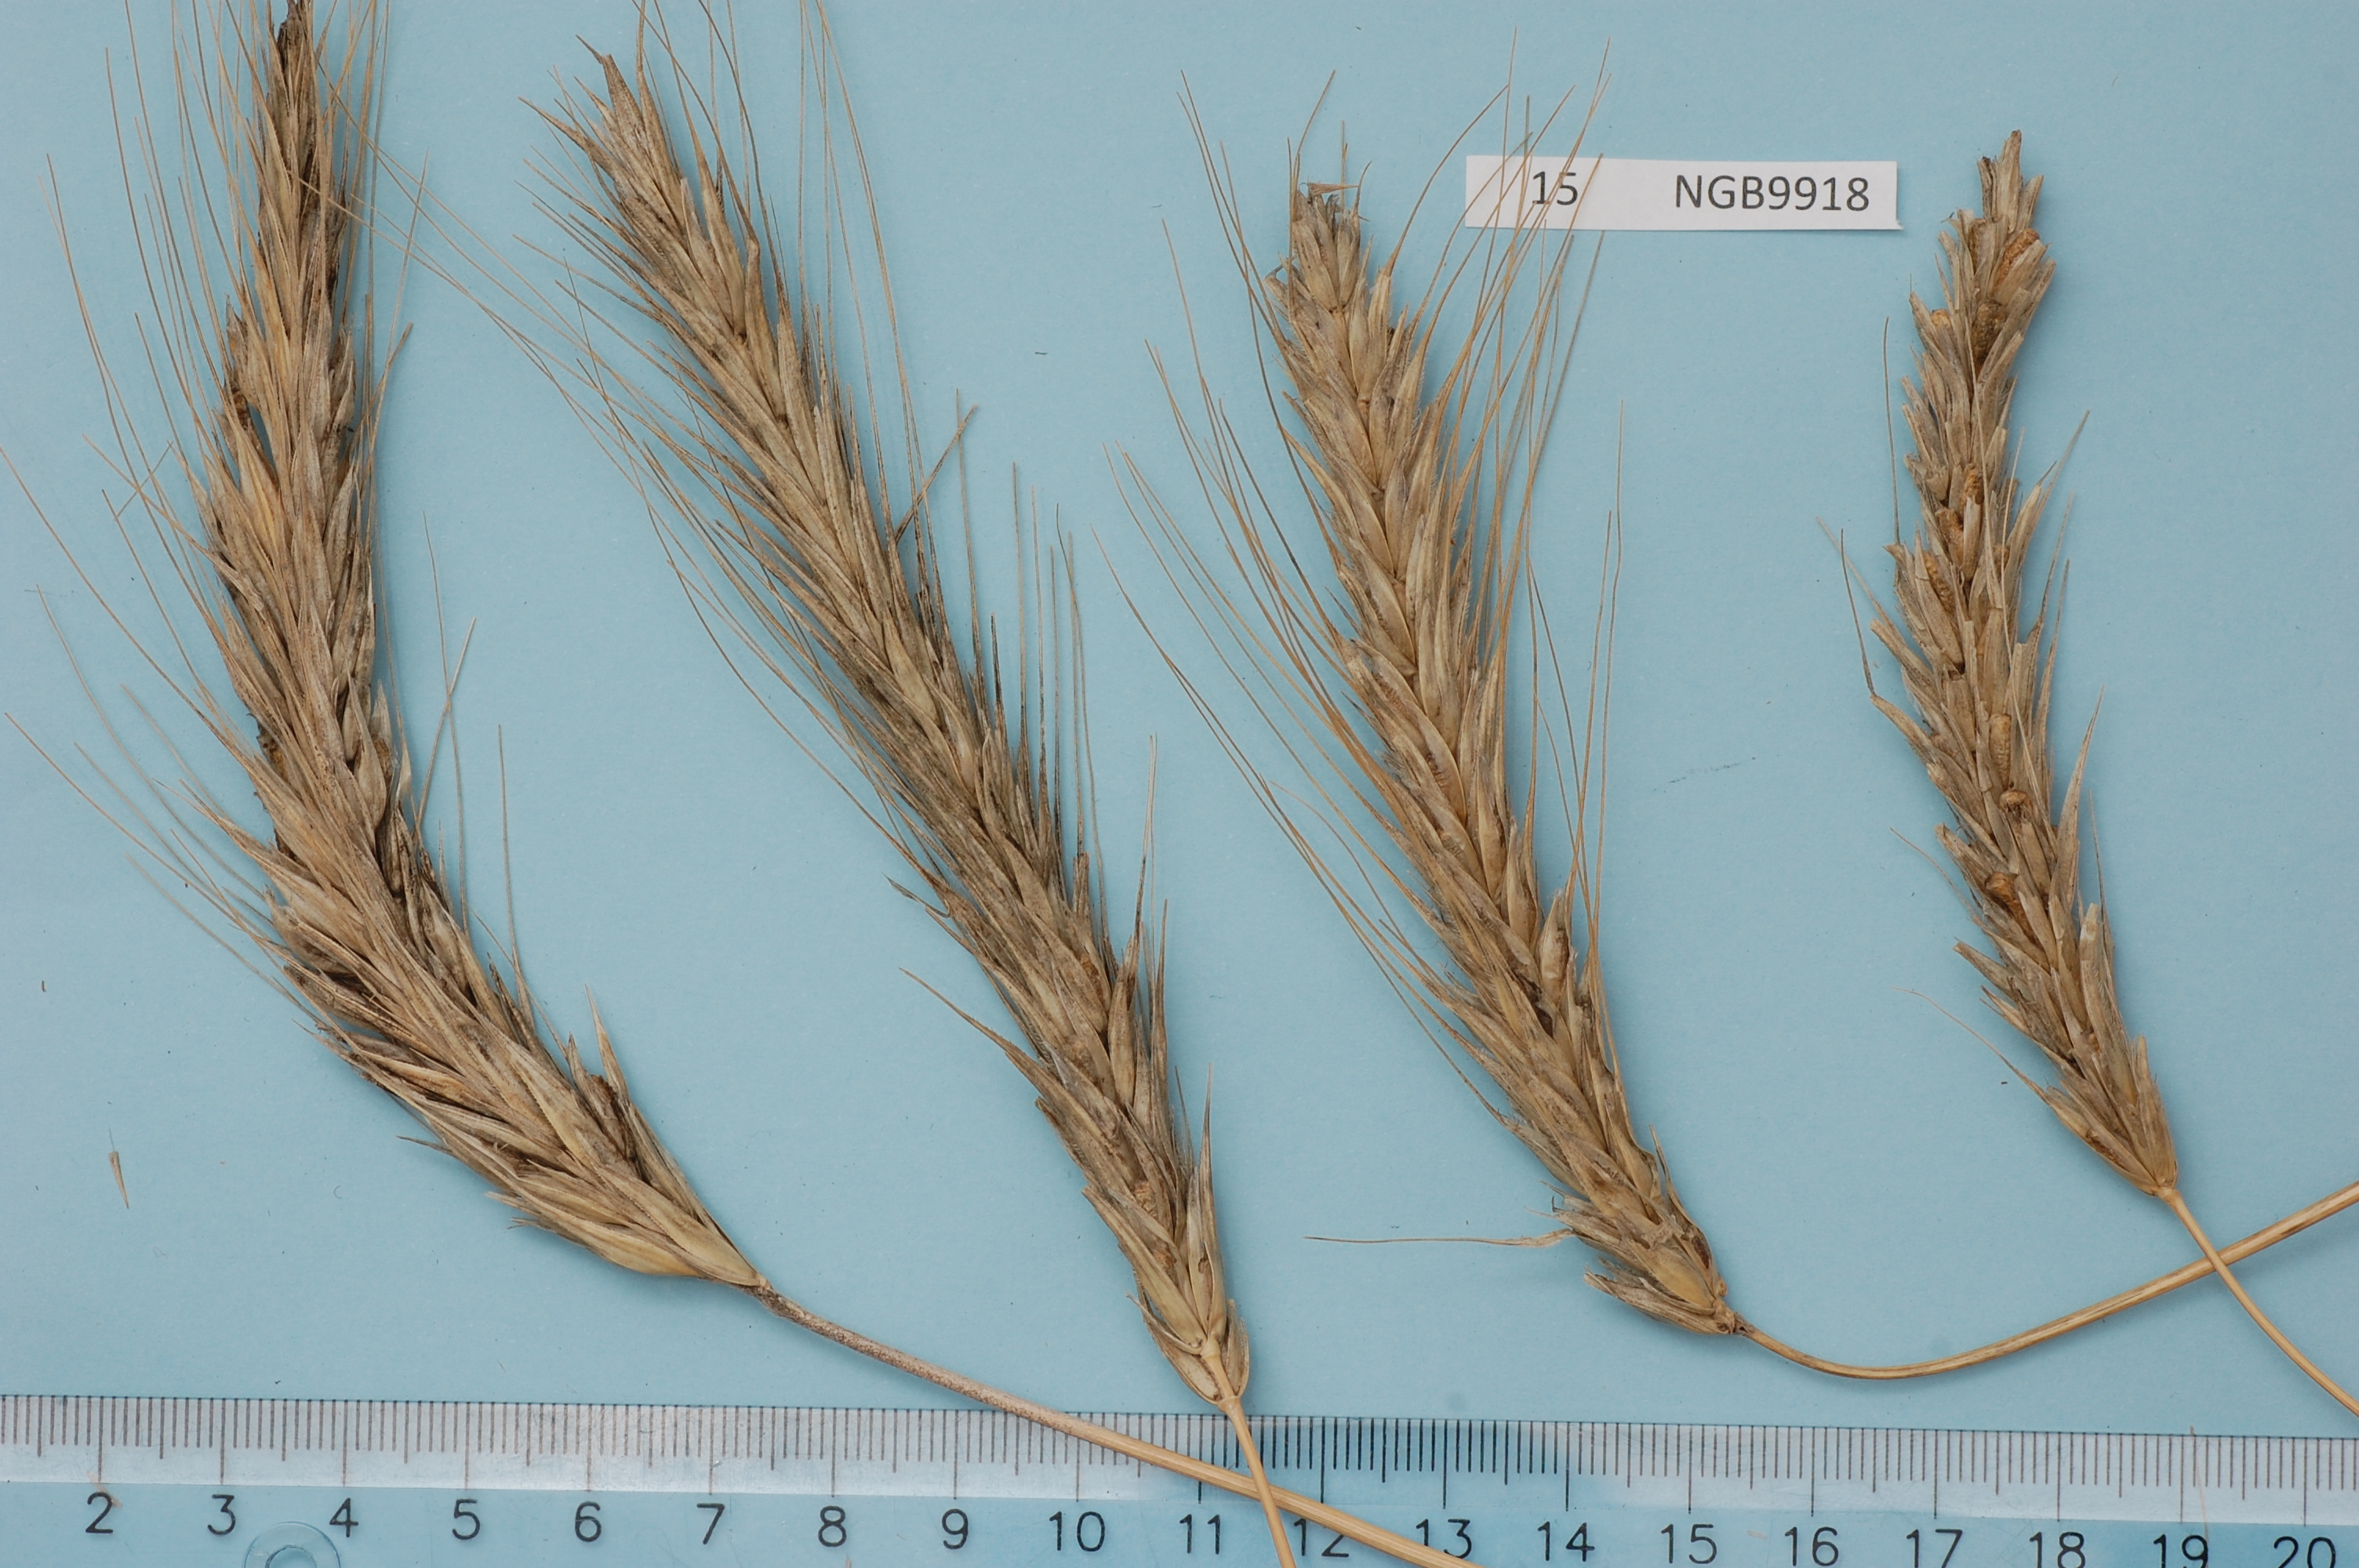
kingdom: Plantae
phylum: Tracheophyta
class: Liliopsida
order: Poales
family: Poaceae
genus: Secale
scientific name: Secale cereale
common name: Rye
